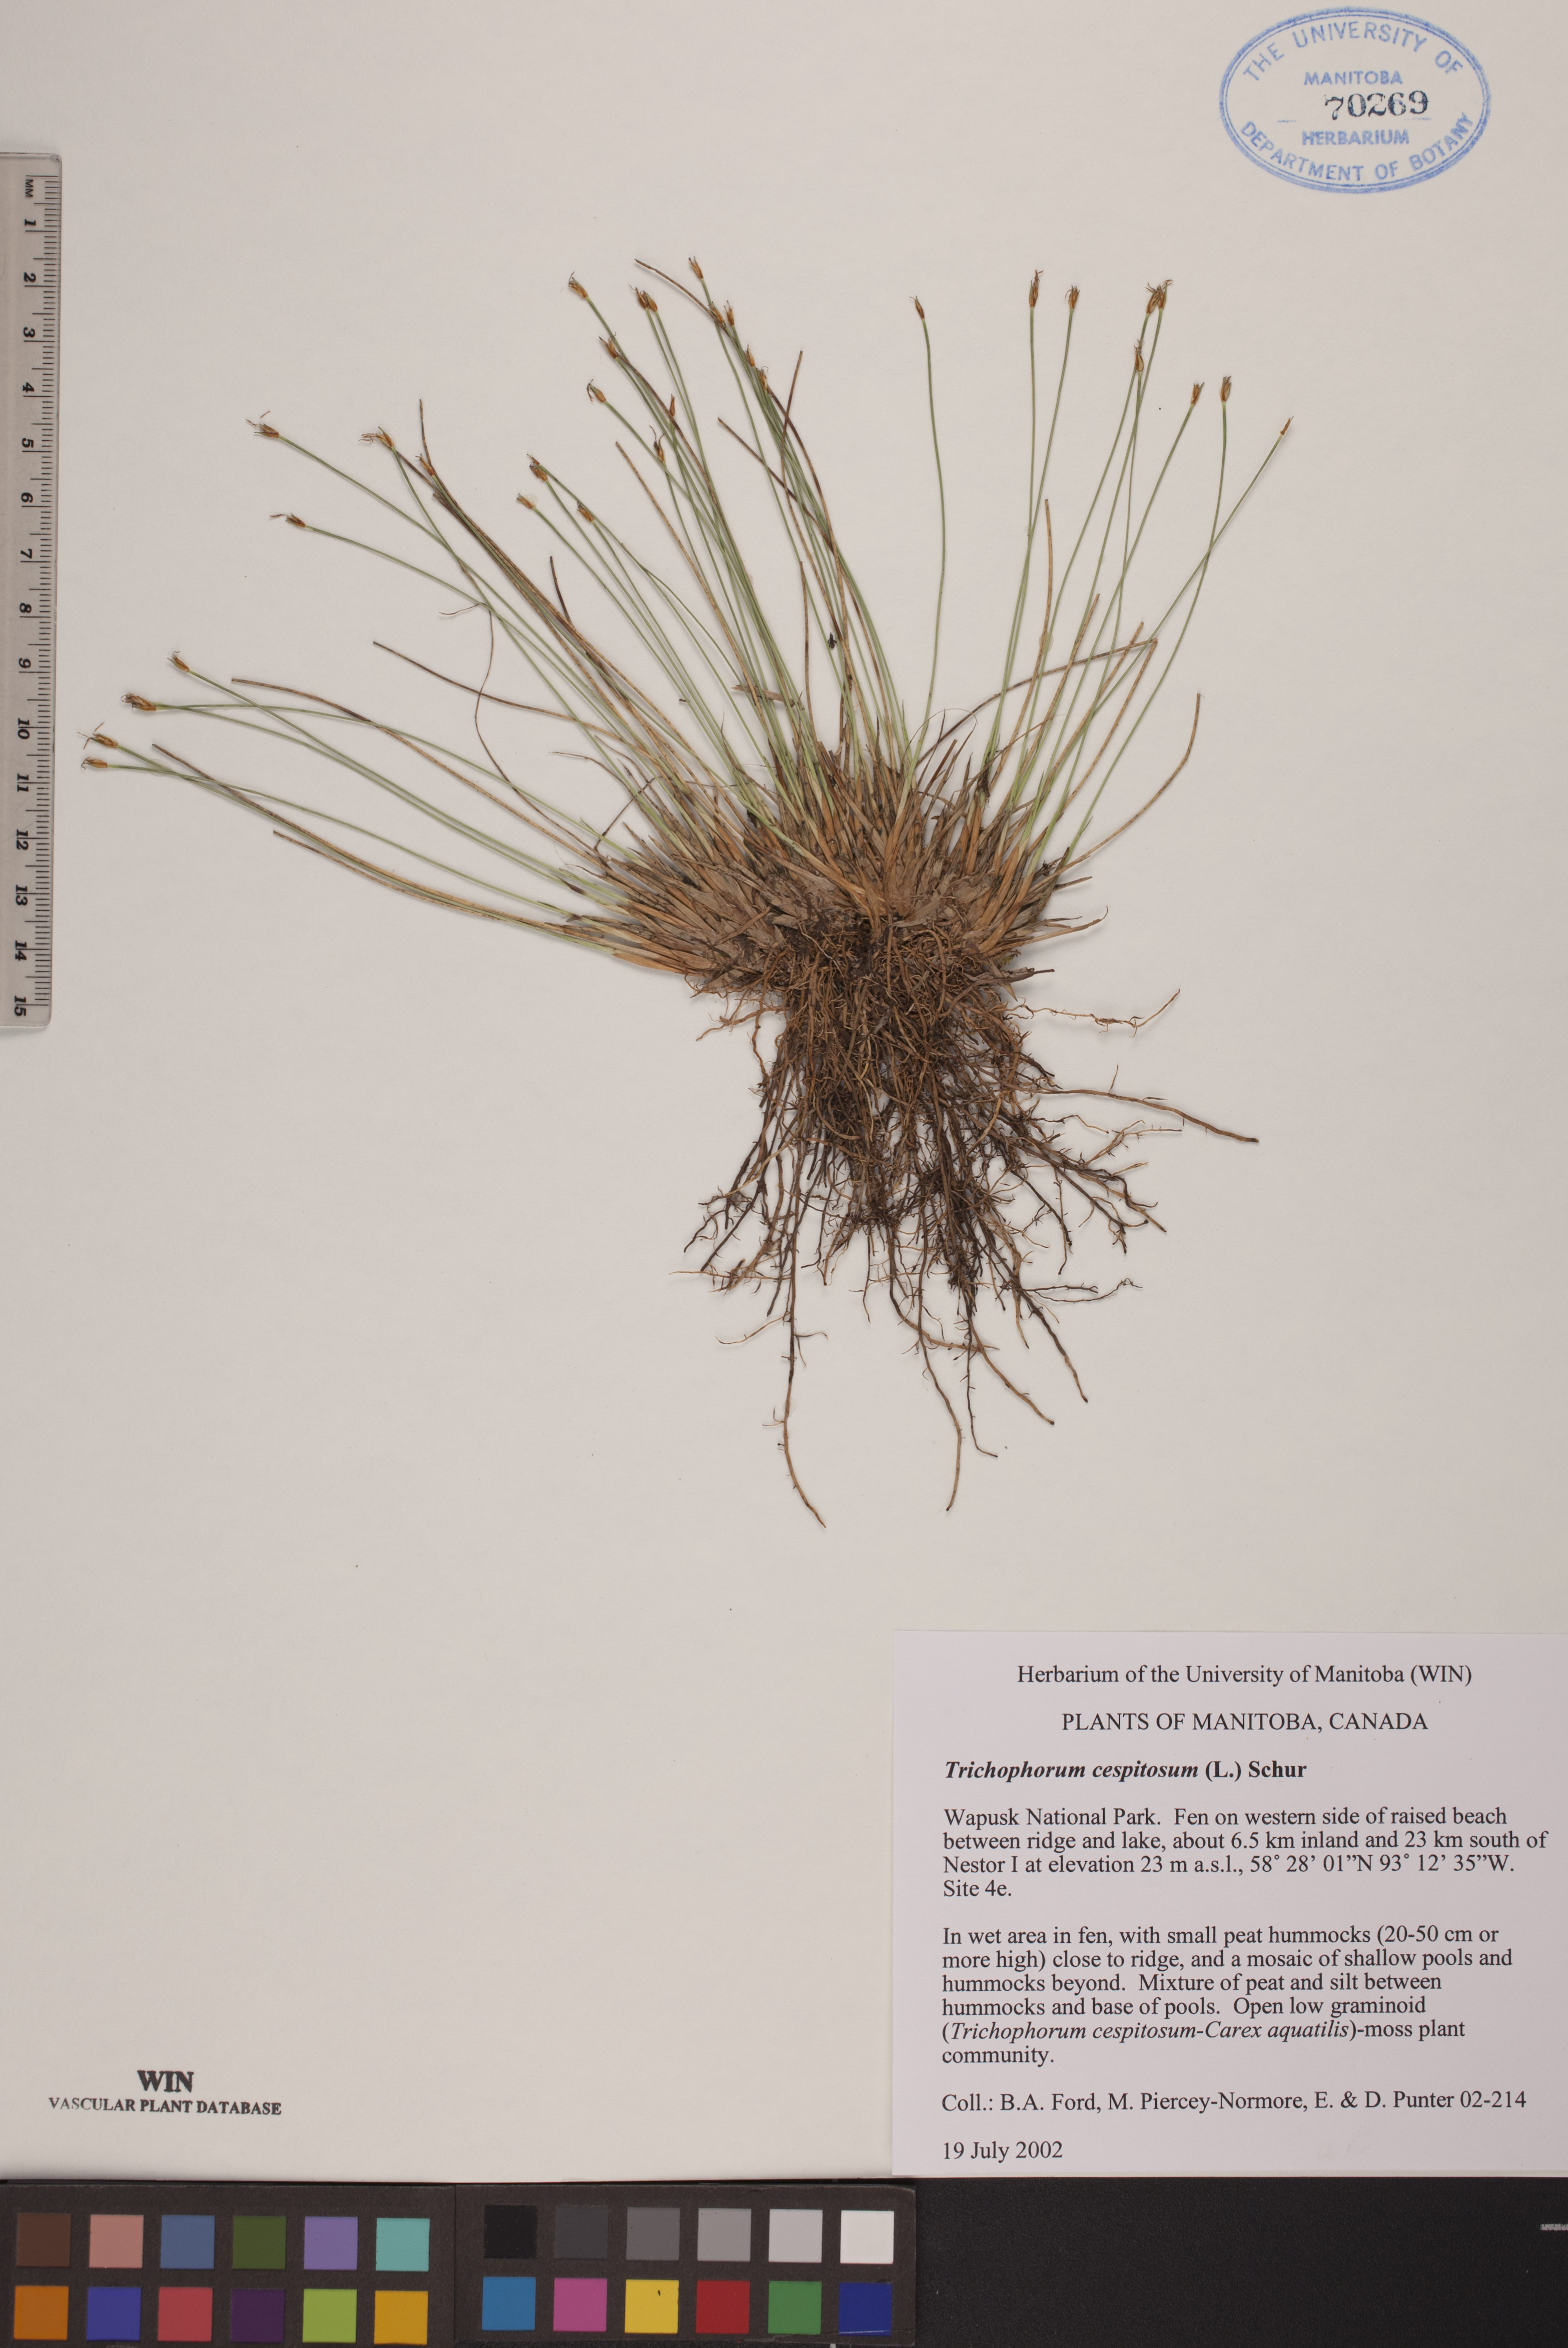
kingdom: Plantae
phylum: Tracheophyta
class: Liliopsida
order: Poales
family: Cyperaceae
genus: Trichophorum
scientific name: Trichophorum cespitosum
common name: Cespitose bulrush
